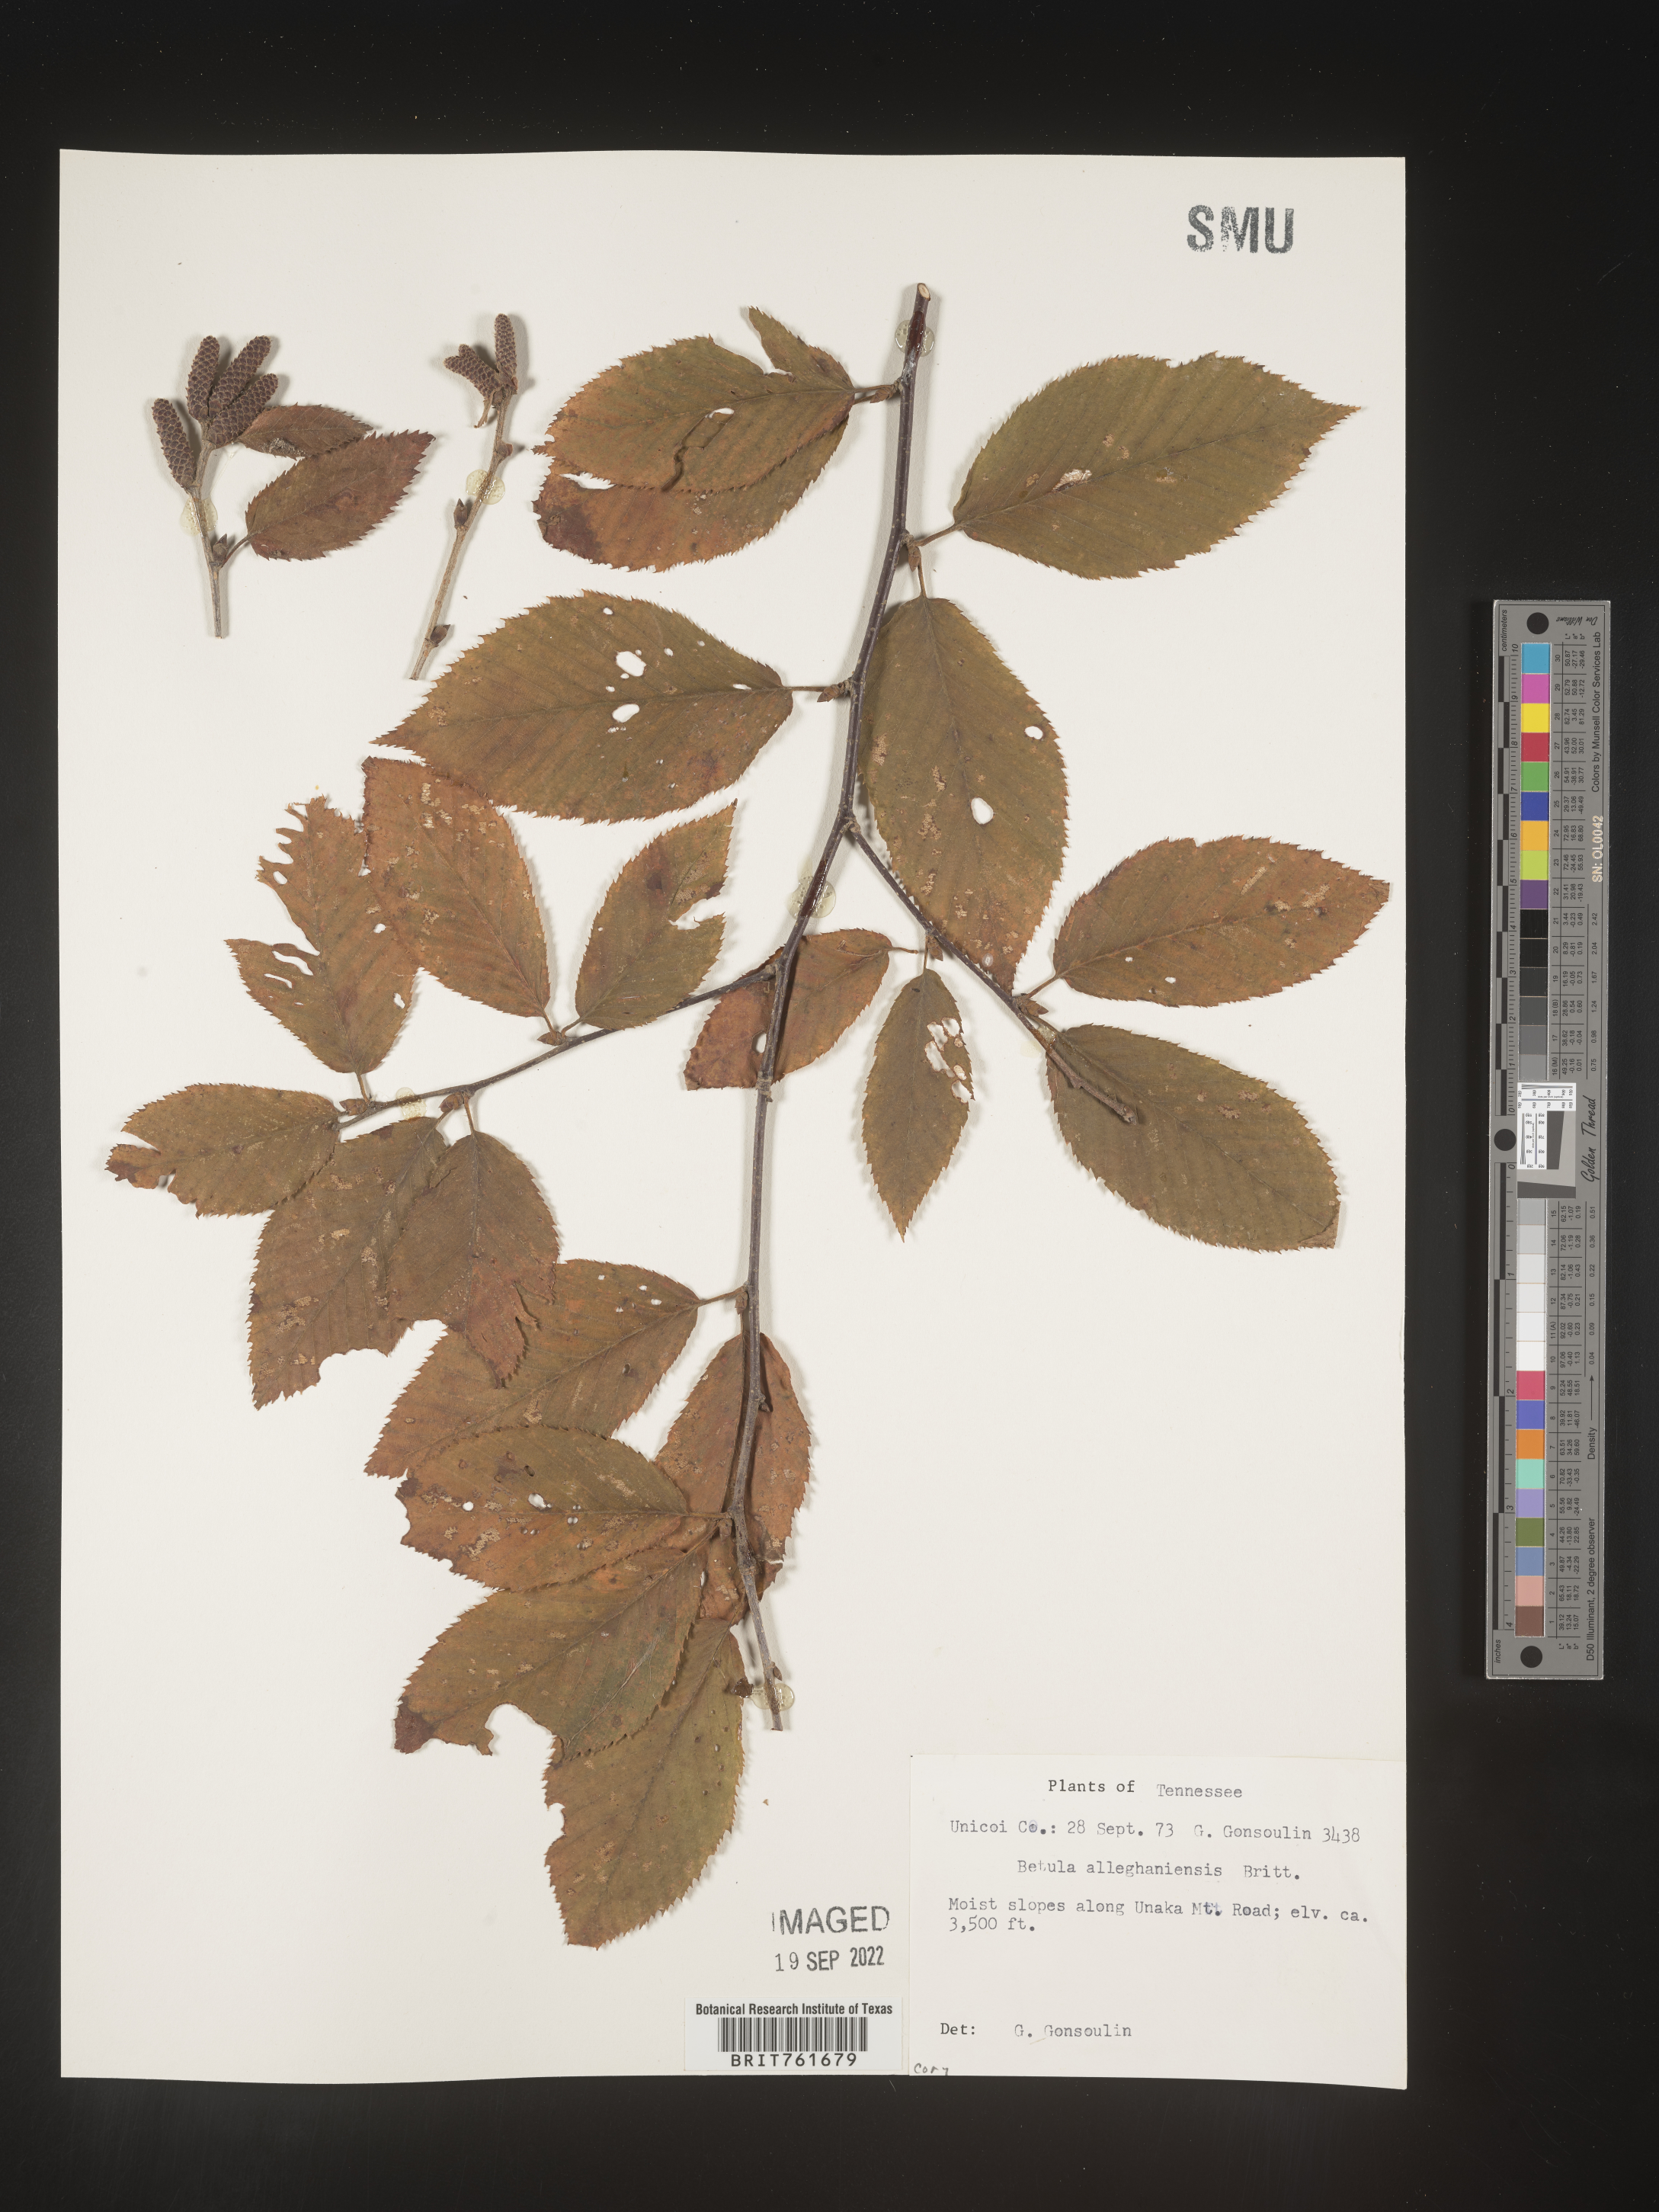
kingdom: Plantae
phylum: Tracheophyta
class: Magnoliopsida
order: Fagales
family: Betulaceae
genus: Betula
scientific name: Betula alleghaniensis
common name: Yellow birch
